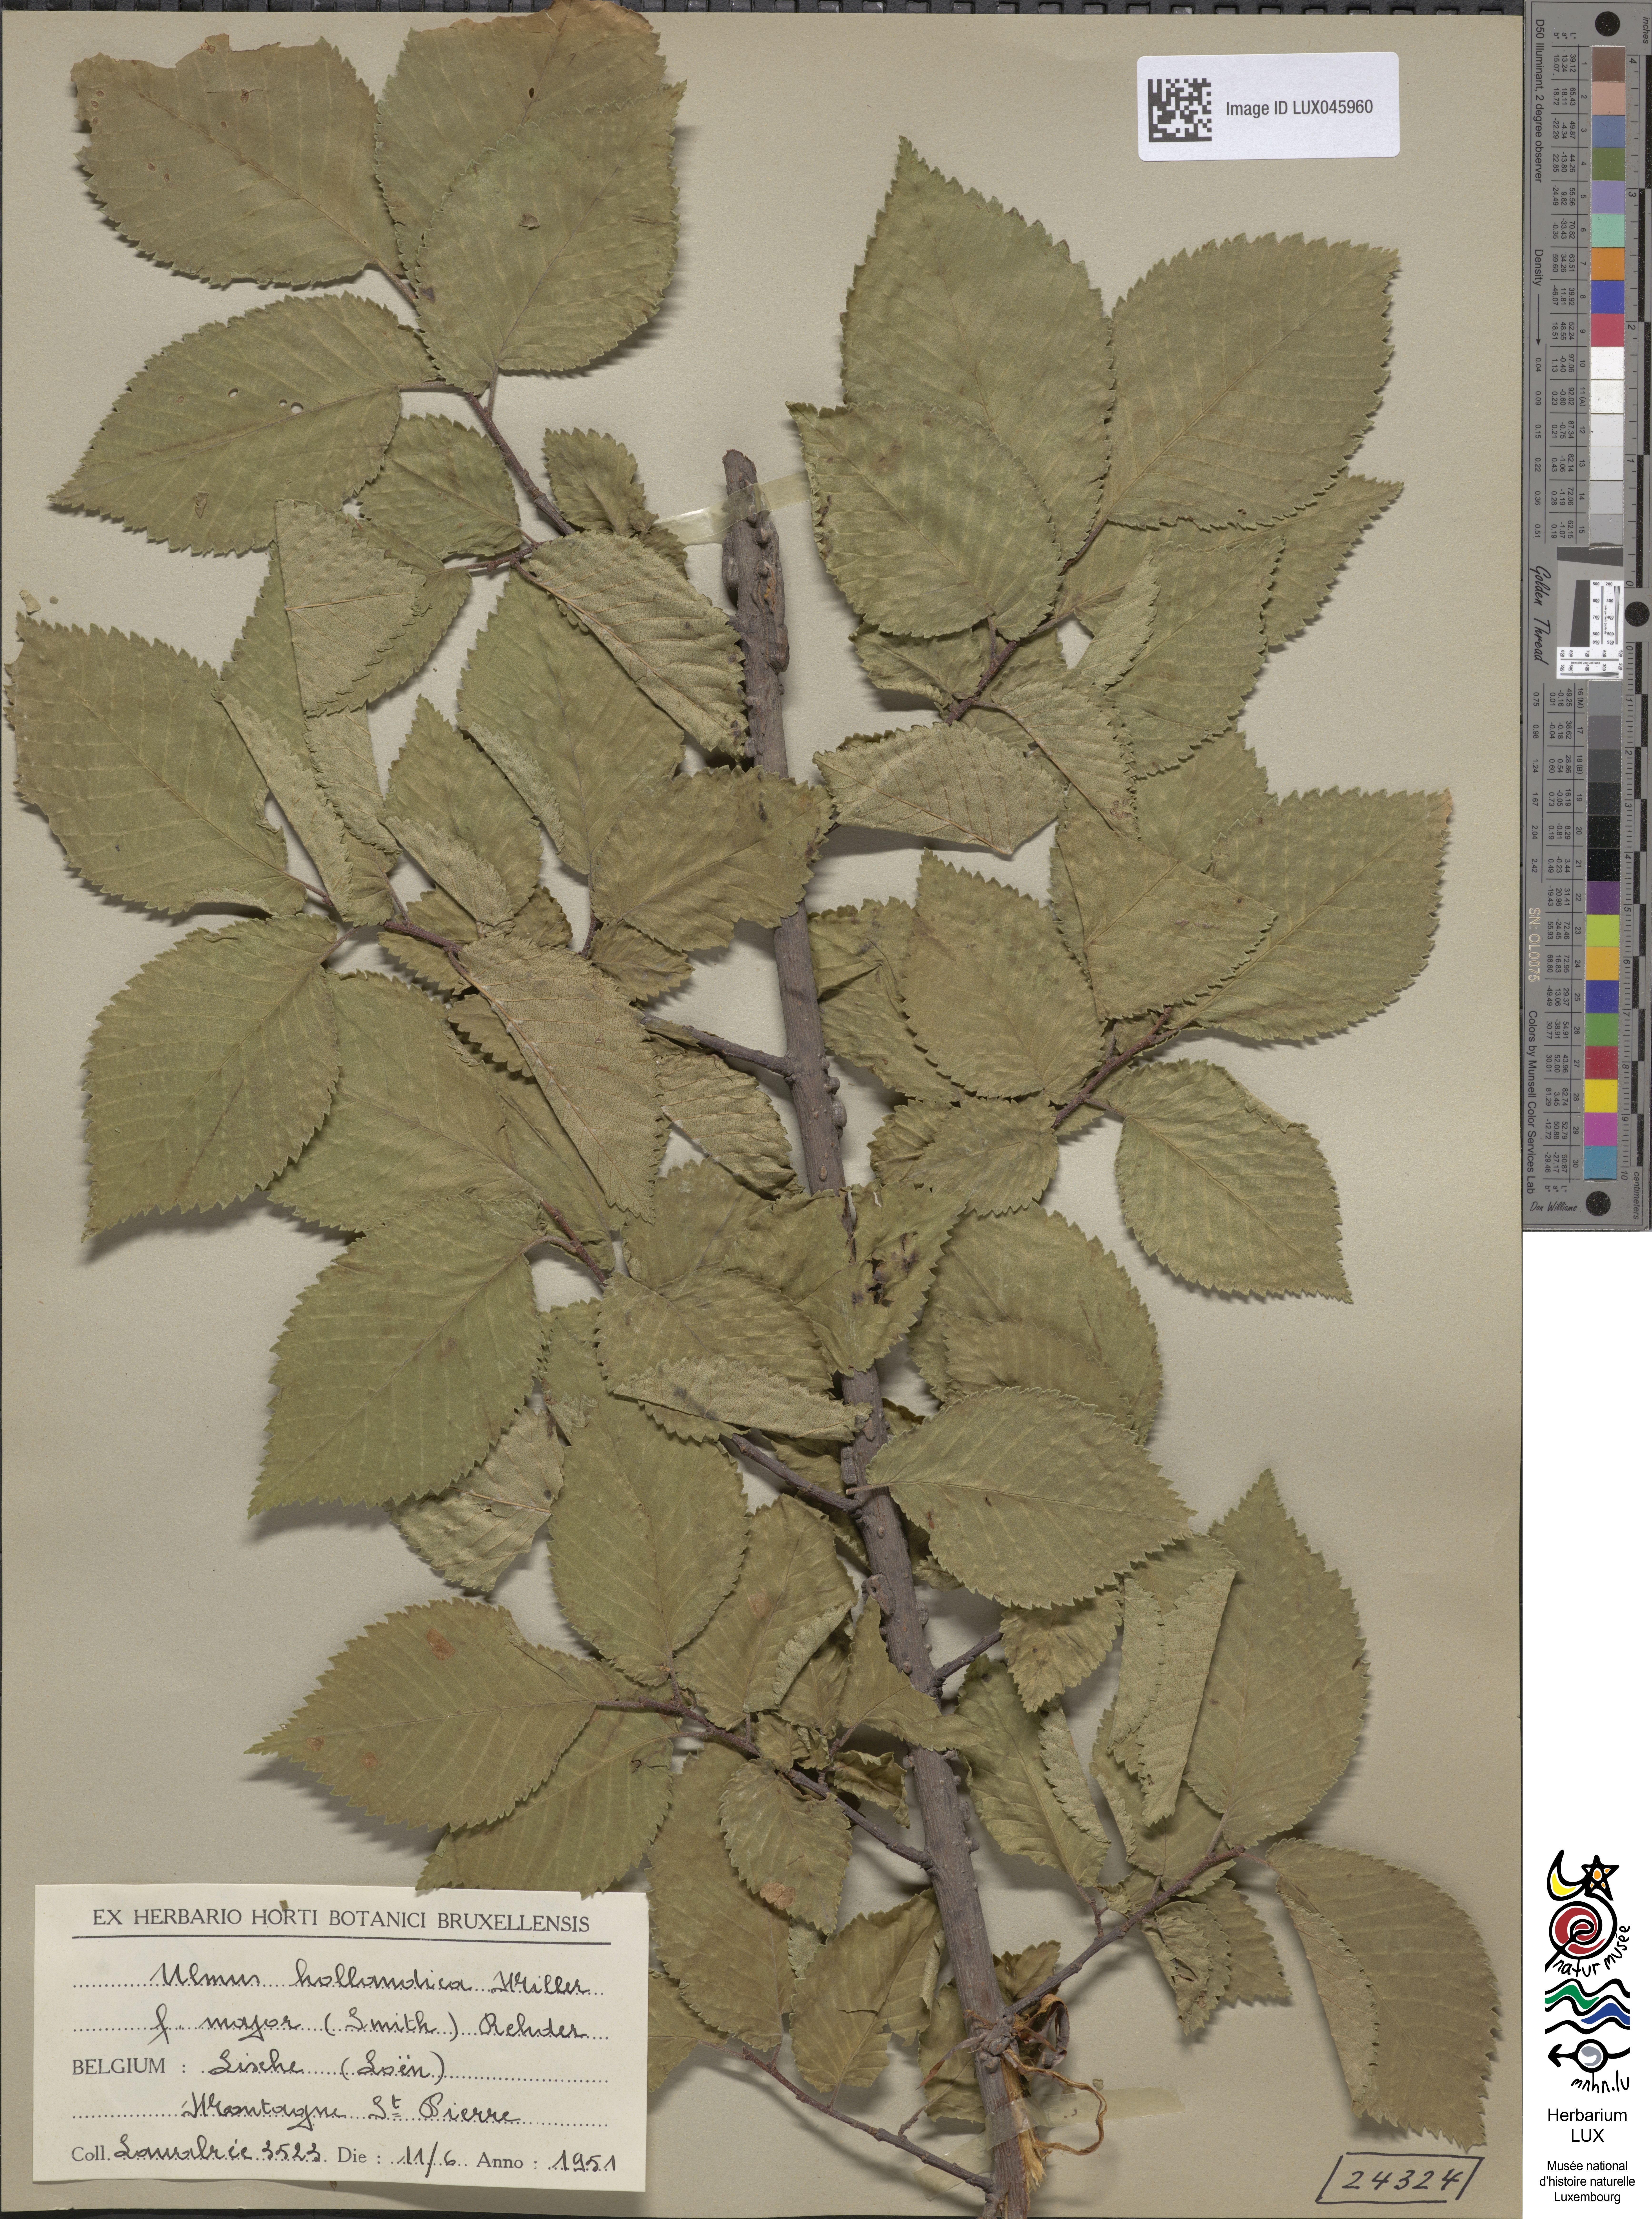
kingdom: Plantae
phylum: Tracheophyta
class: Magnoliopsida
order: Rosales
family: Ulmaceae
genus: Ulmus
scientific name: Ulmus hollandica
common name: Dutch elm
